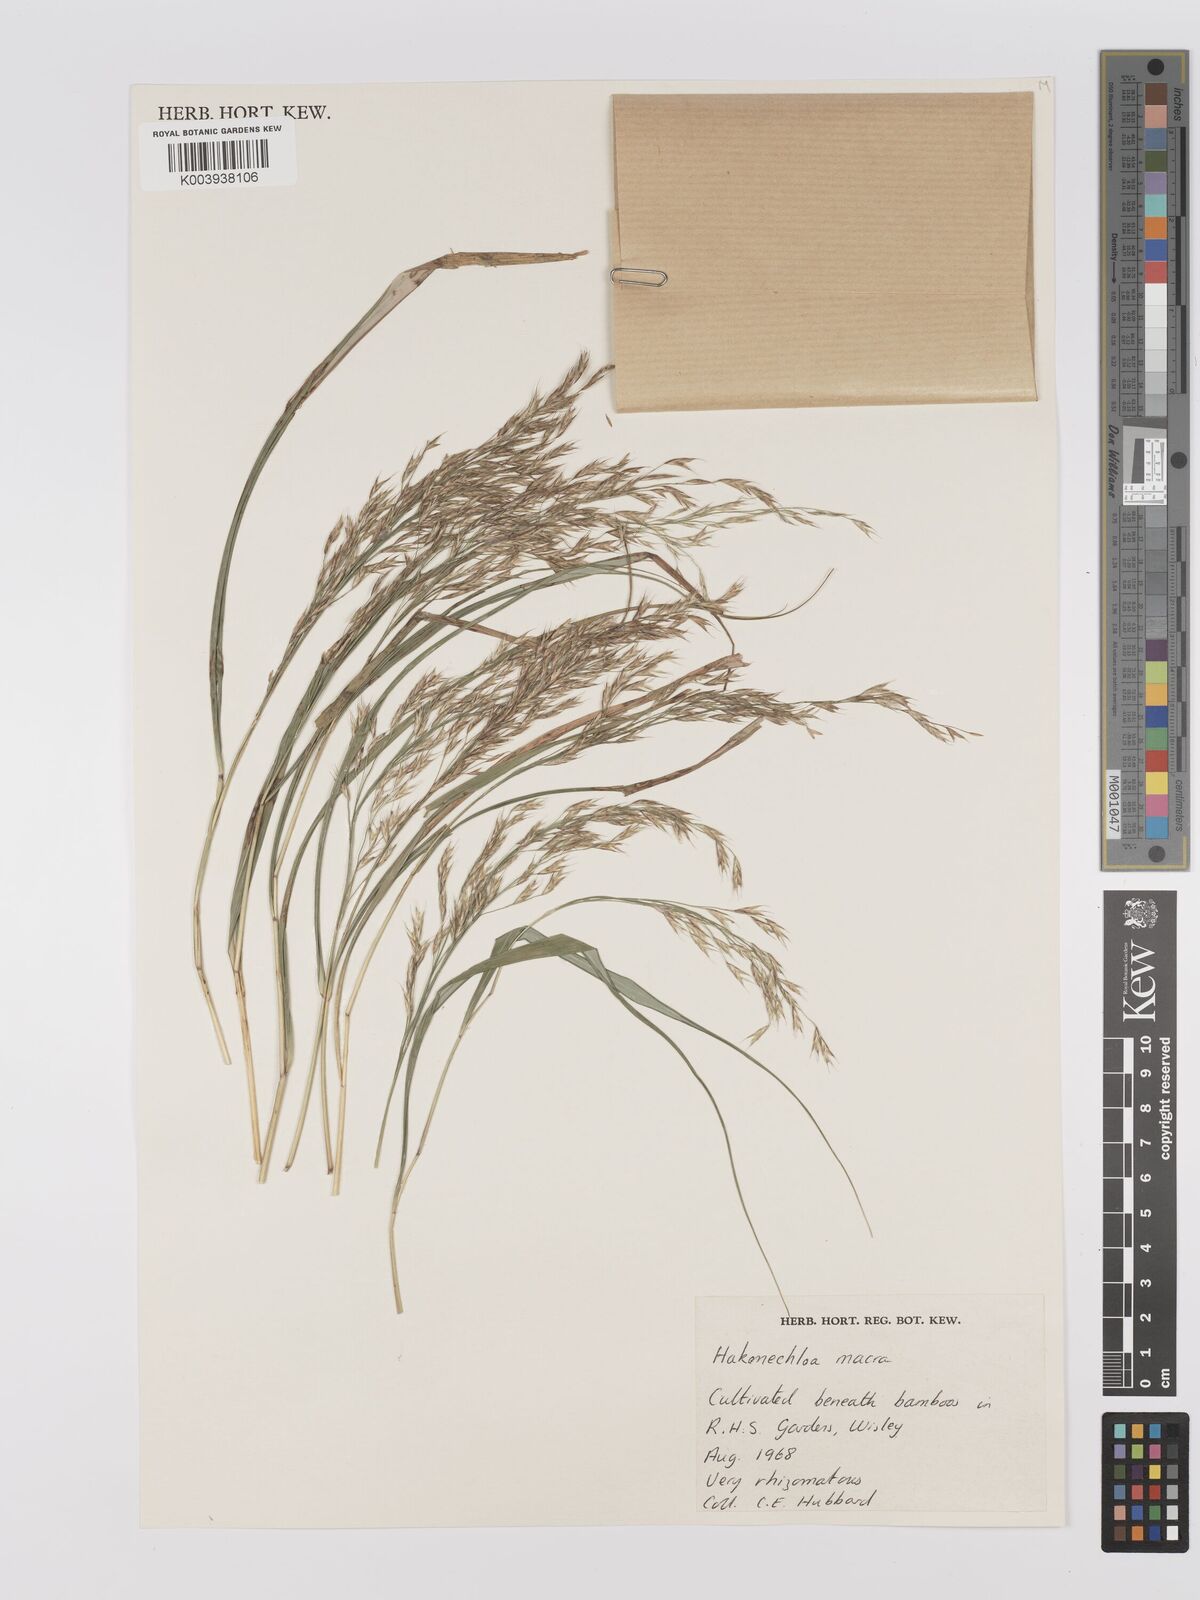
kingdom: Plantae
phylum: Tracheophyta
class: Liliopsida
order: Poales
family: Poaceae
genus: Hakonechloa
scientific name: Hakonechloa macra
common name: Hakone grass
